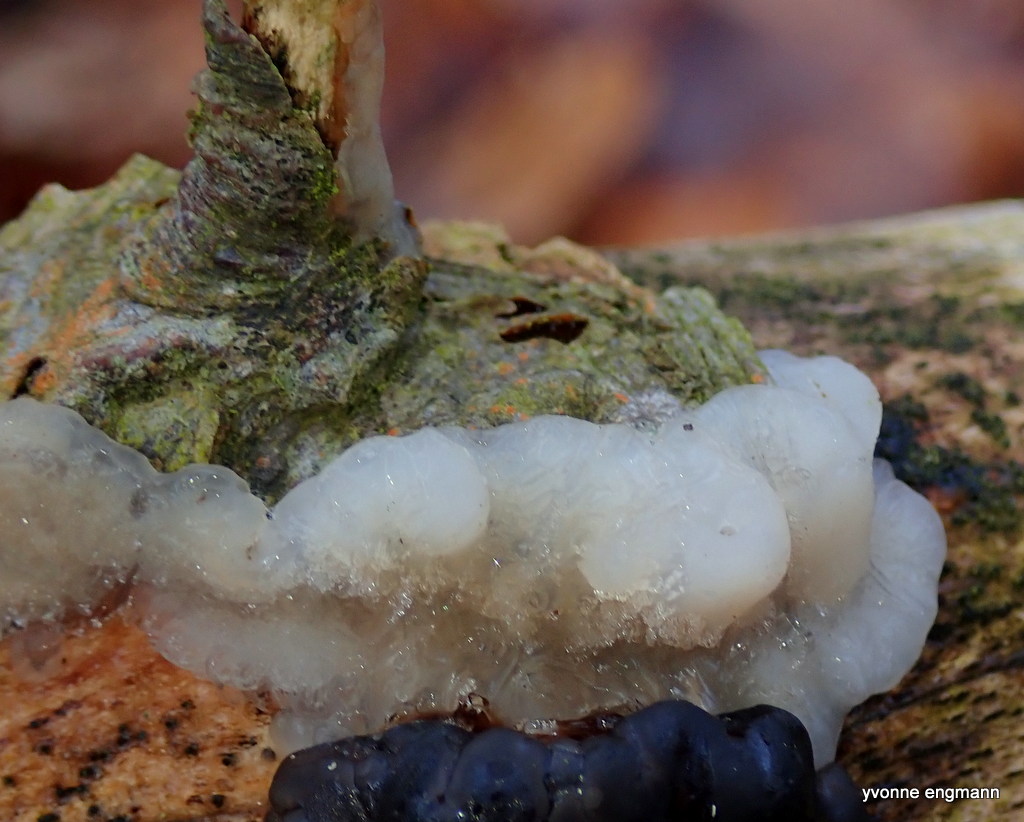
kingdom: Fungi
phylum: Basidiomycota
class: Agaricomycetes
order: Auriculariales
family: Hyaloriaceae
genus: Myxarium
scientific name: Myxarium nucleatum
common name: klar bævretop
